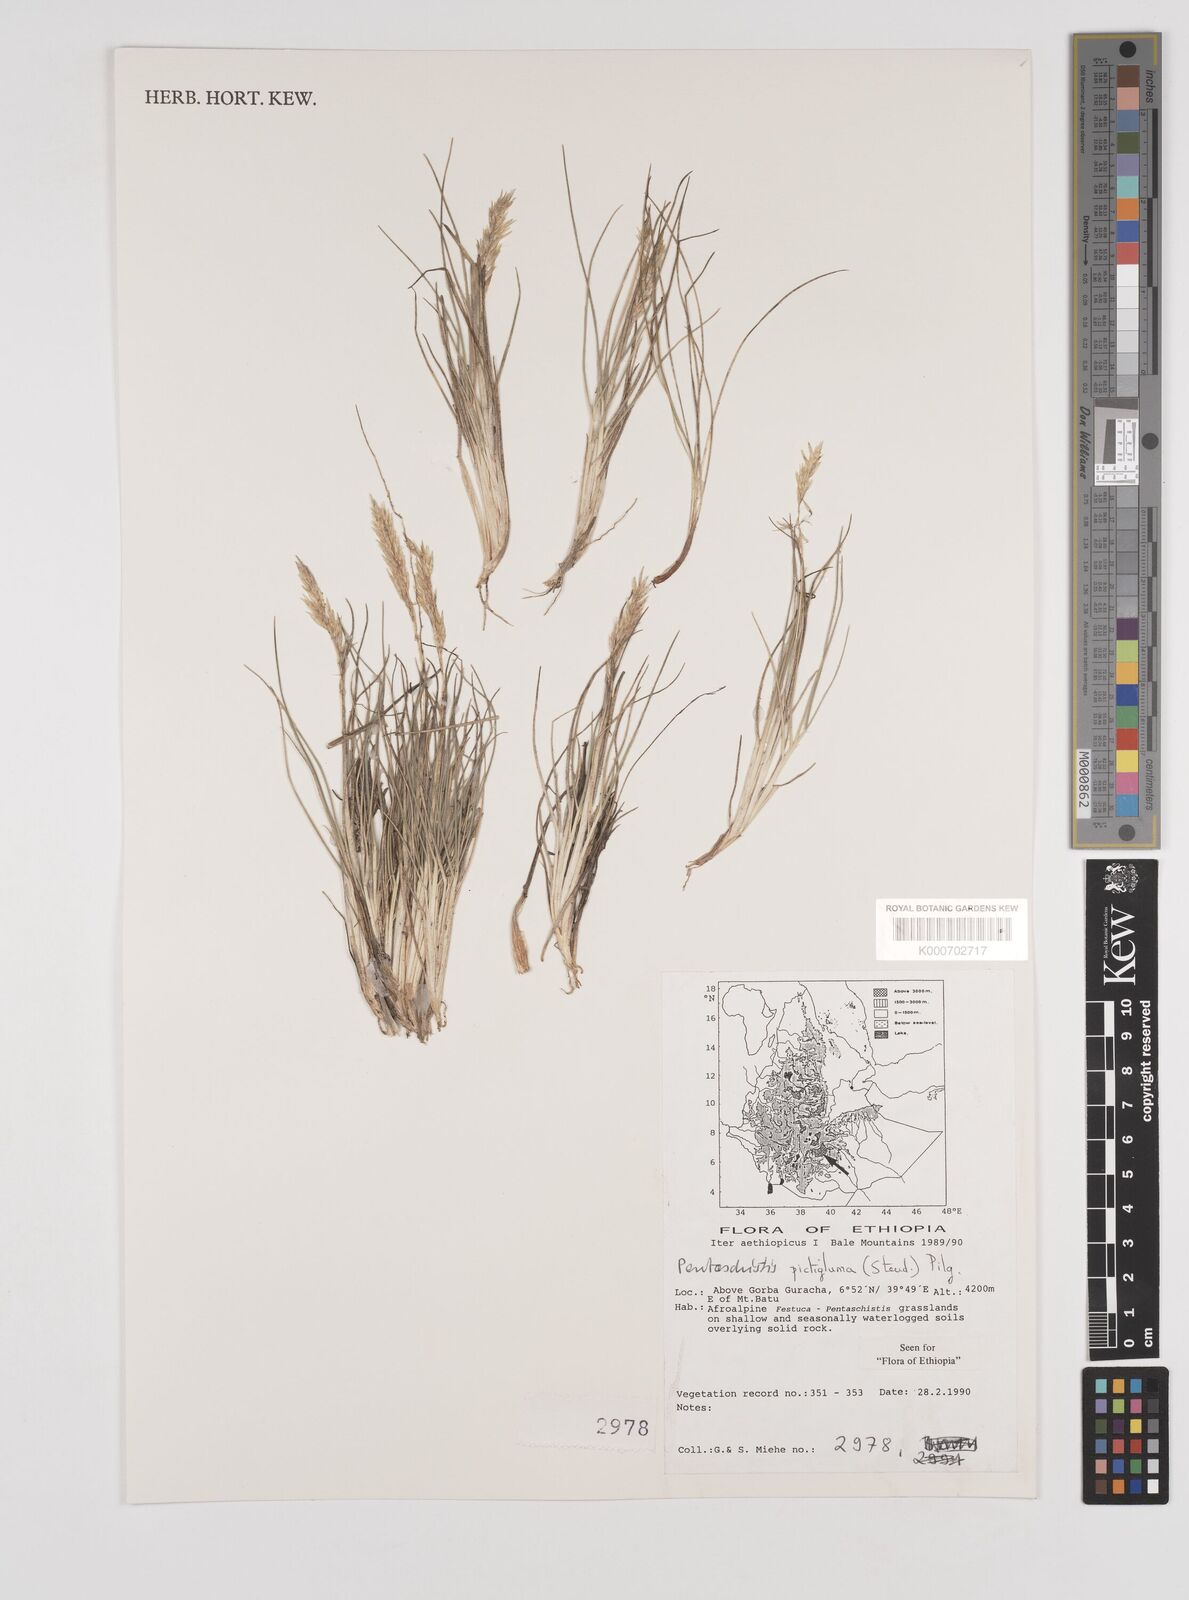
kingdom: Plantae
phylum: Tracheophyta
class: Liliopsida
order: Poales
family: Poaceae
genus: Pentameris
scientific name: Pentameris pictigluma
